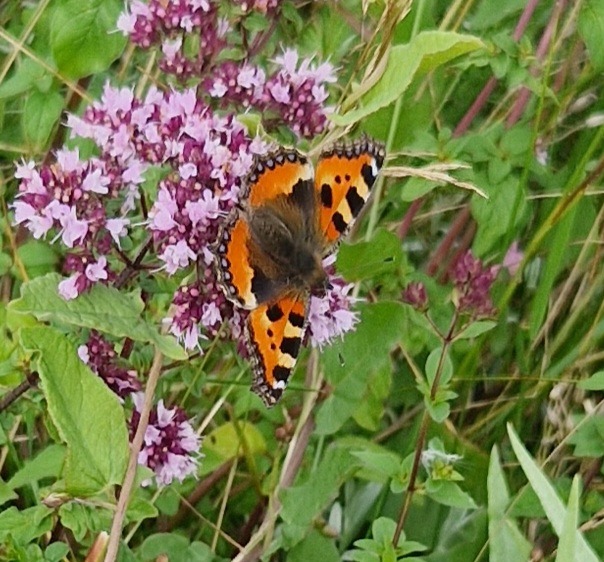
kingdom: Animalia
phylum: Arthropoda
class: Insecta
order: Lepidoptera
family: Nymphalidae
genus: Aglais
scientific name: Aglais urticae
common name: Nældens takvinge
